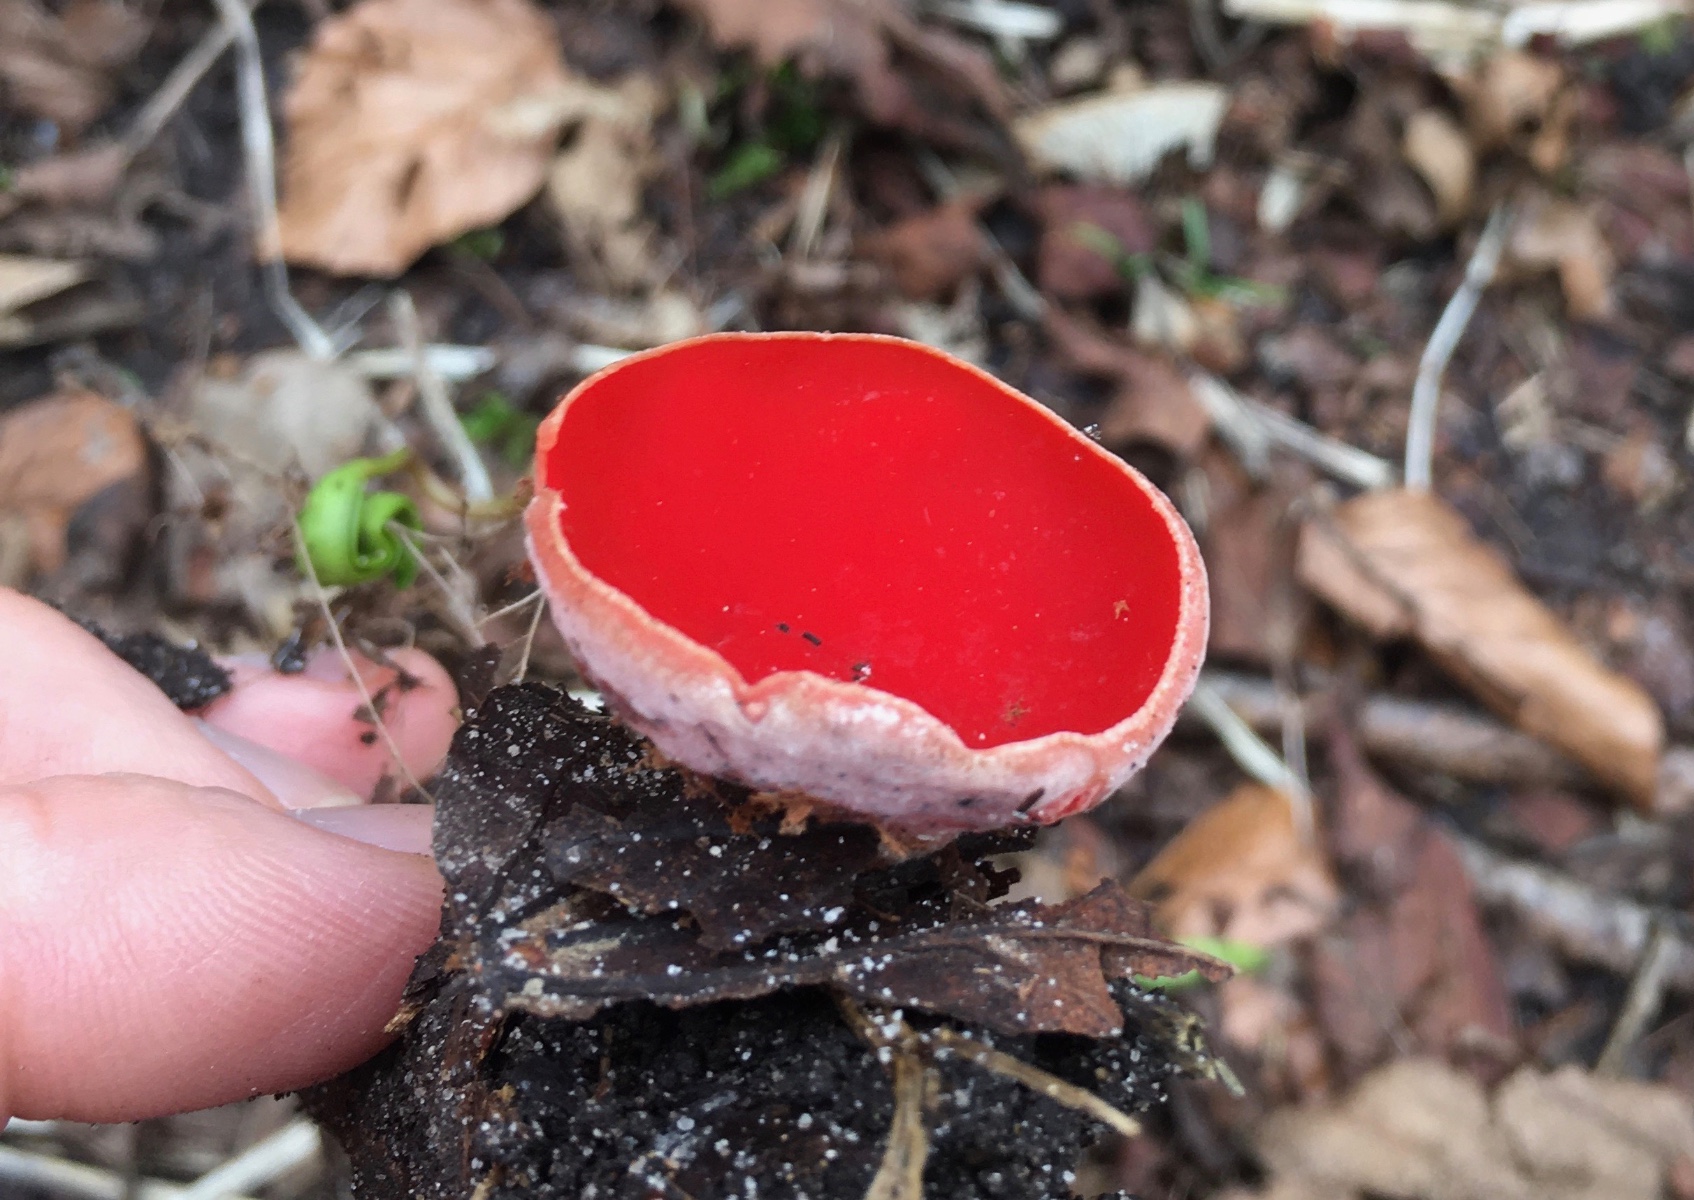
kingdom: Fungi
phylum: Ascomycota
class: Pezizomycetes
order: Pezizales
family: Sarcoscyphaceae
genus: Sarcoscypha
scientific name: Sarcoscypha austriaca
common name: krølhåret pragtbæger
